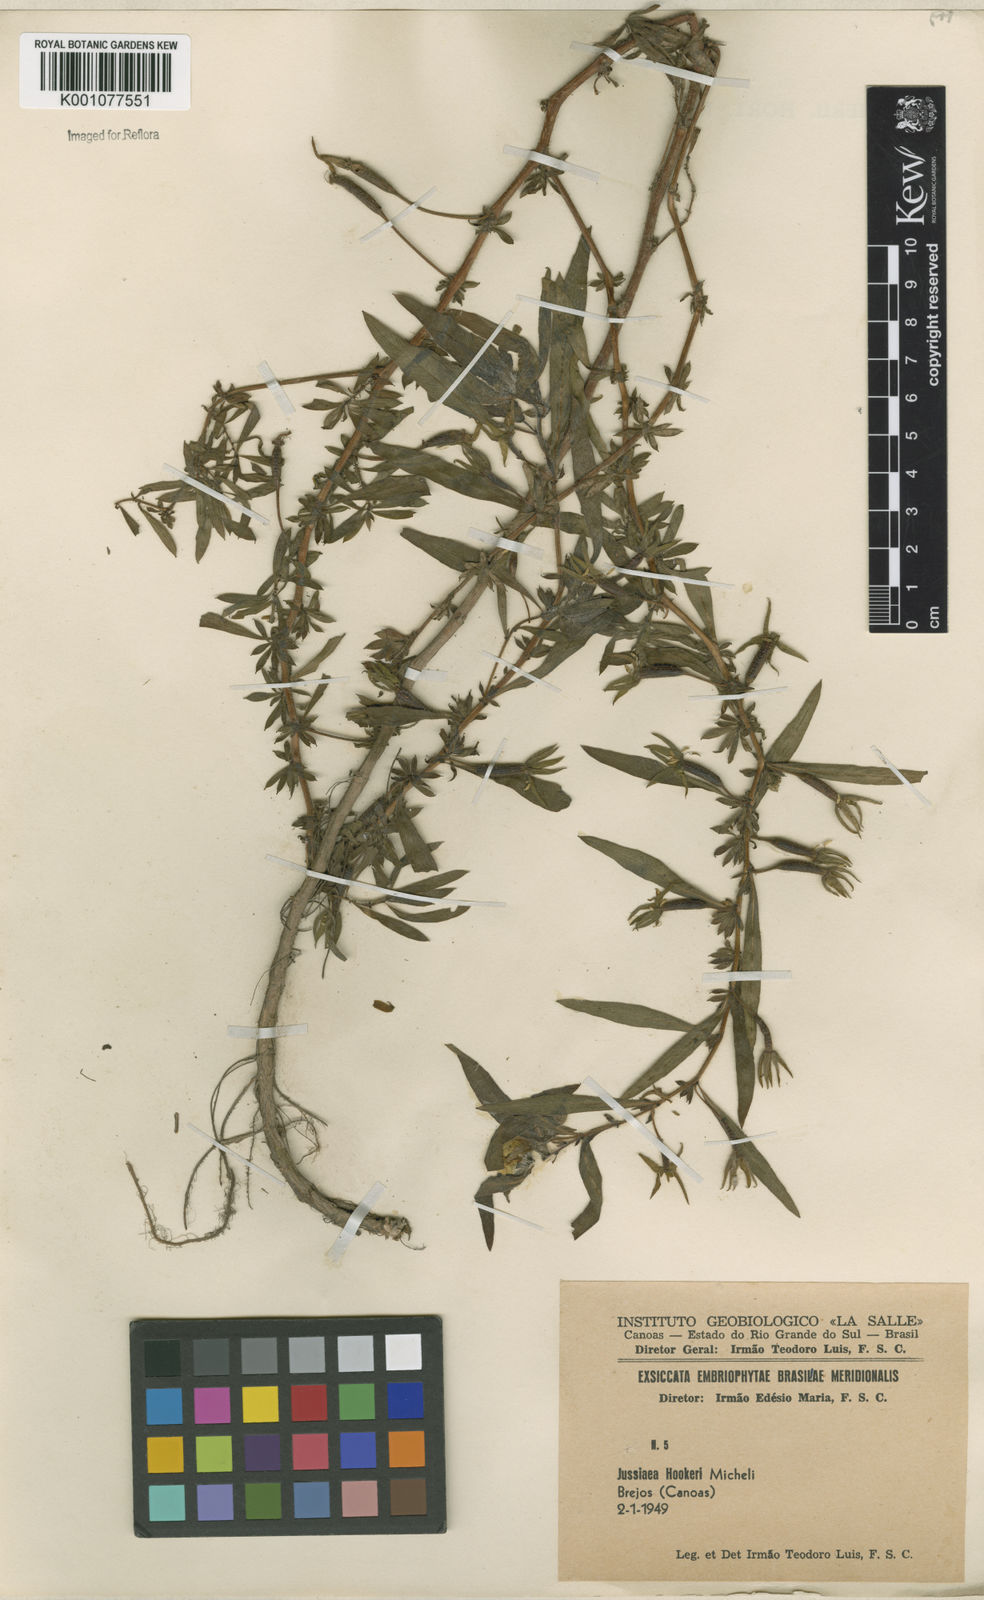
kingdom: Plantae
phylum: Tracheophyta
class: Magnoliopsida
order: Myrtales
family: Onagraceae
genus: Ludwigia
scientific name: Ludwigia grandiflora
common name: Water primrose
